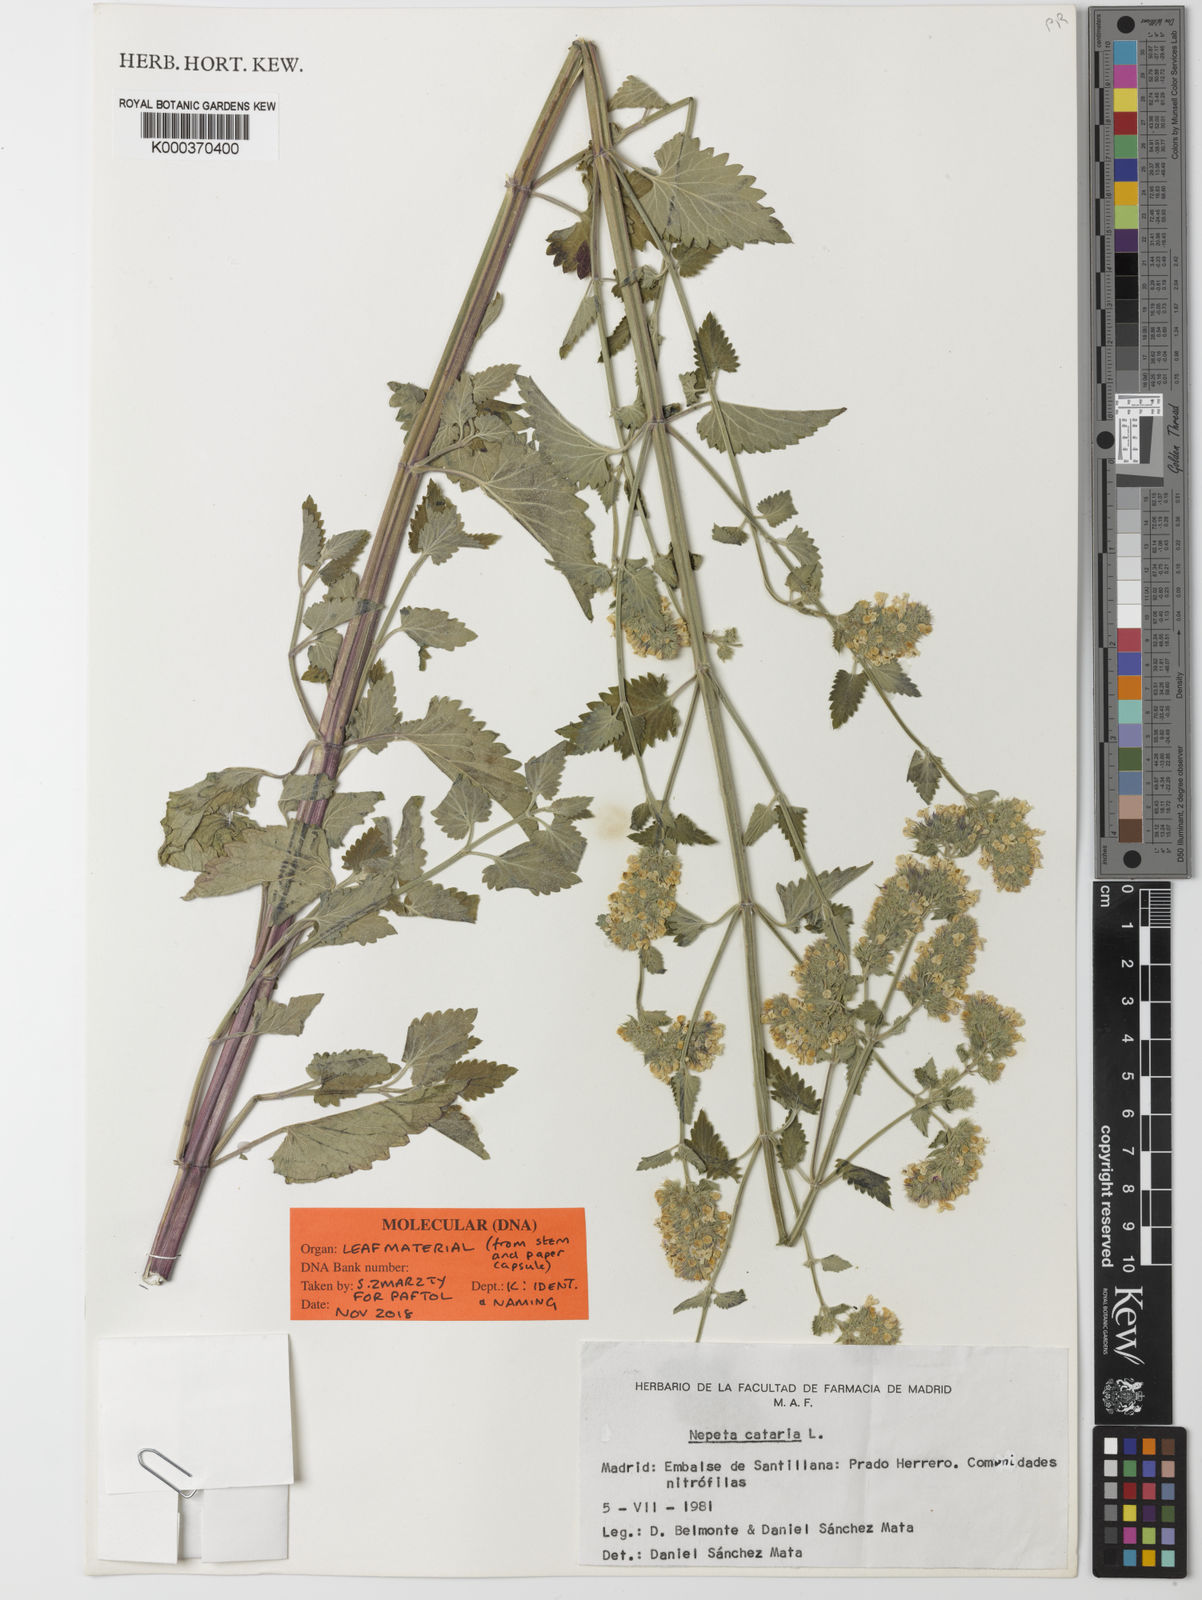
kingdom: Plantae
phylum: Tracheophyta
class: Magnoliopsida
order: Lamiales
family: Lamiaceae
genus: Nepeta
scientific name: Nepeta cataria
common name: Catnip
